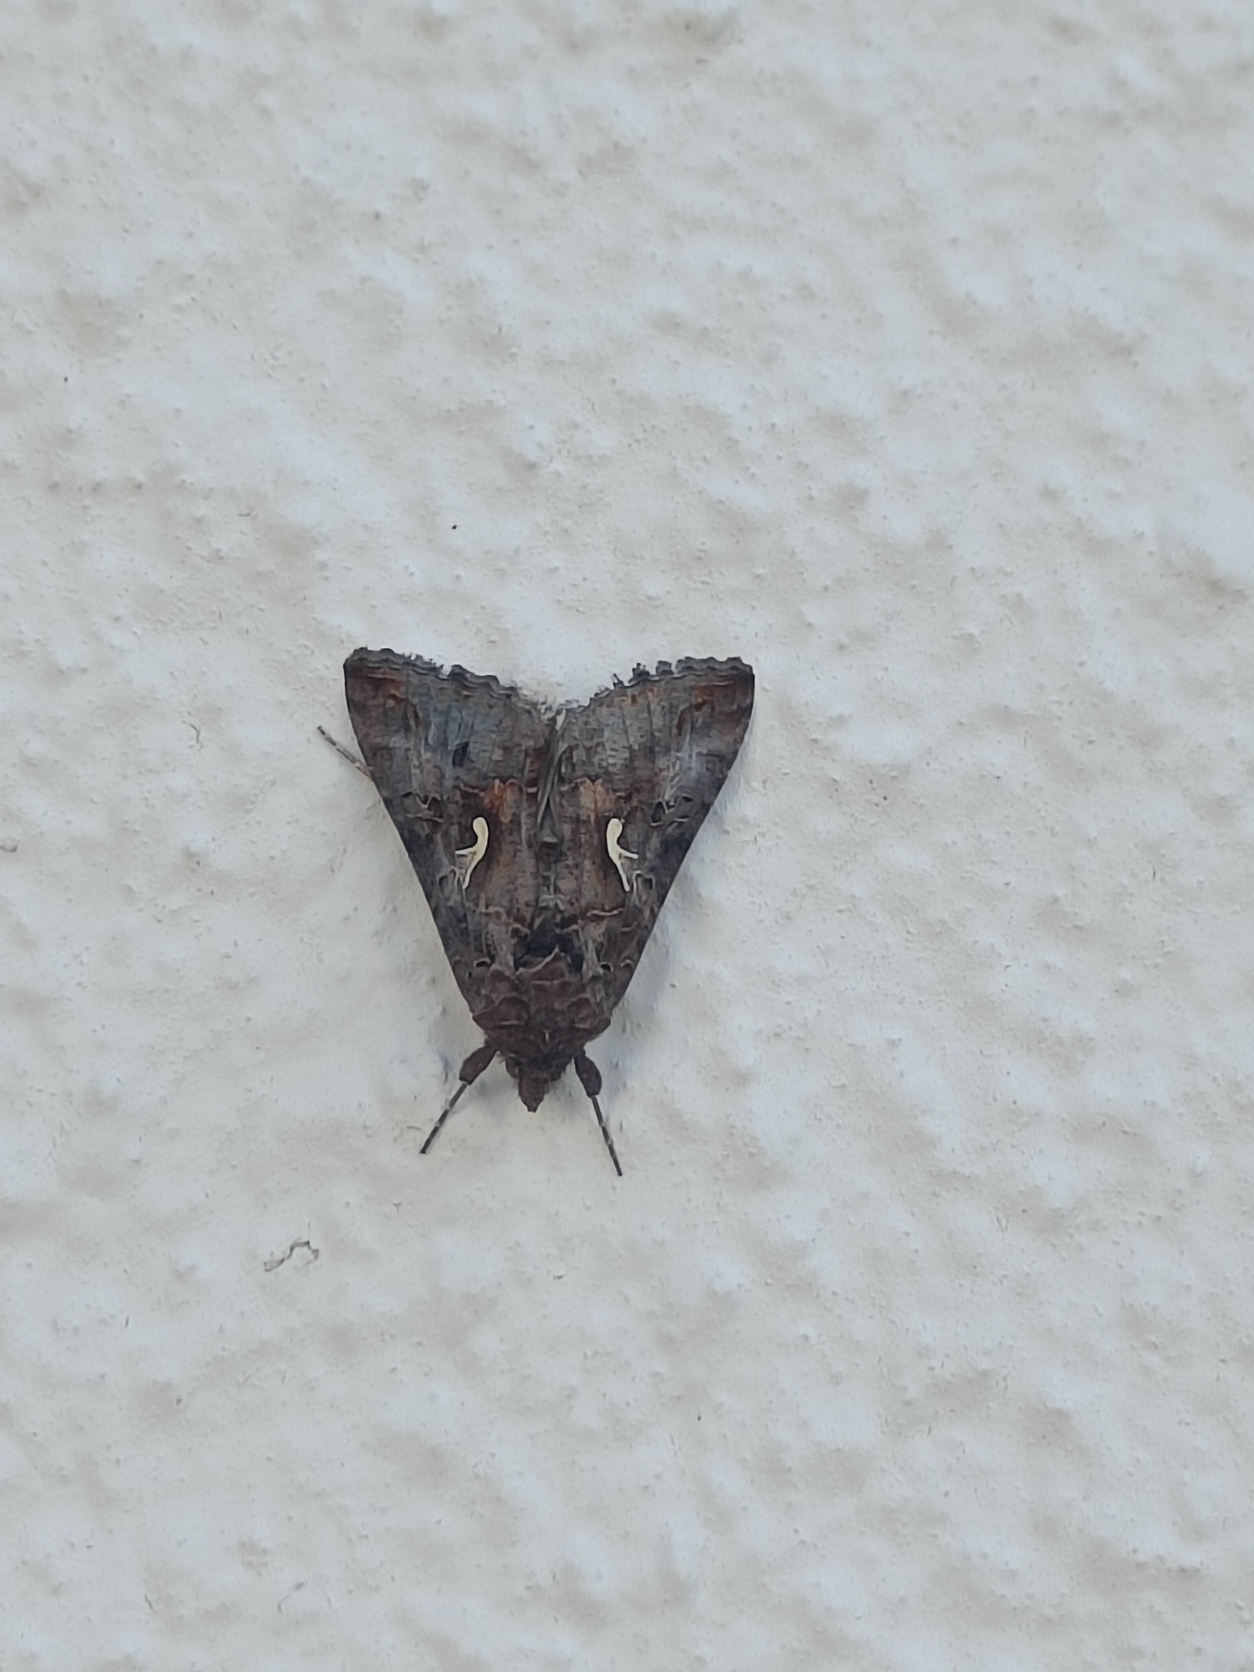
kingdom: Animalia
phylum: Arthropoda
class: Insecta
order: Lepidoptera
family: Noctuidae
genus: Autographa
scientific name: Autographa gamma
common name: Gammaugle
